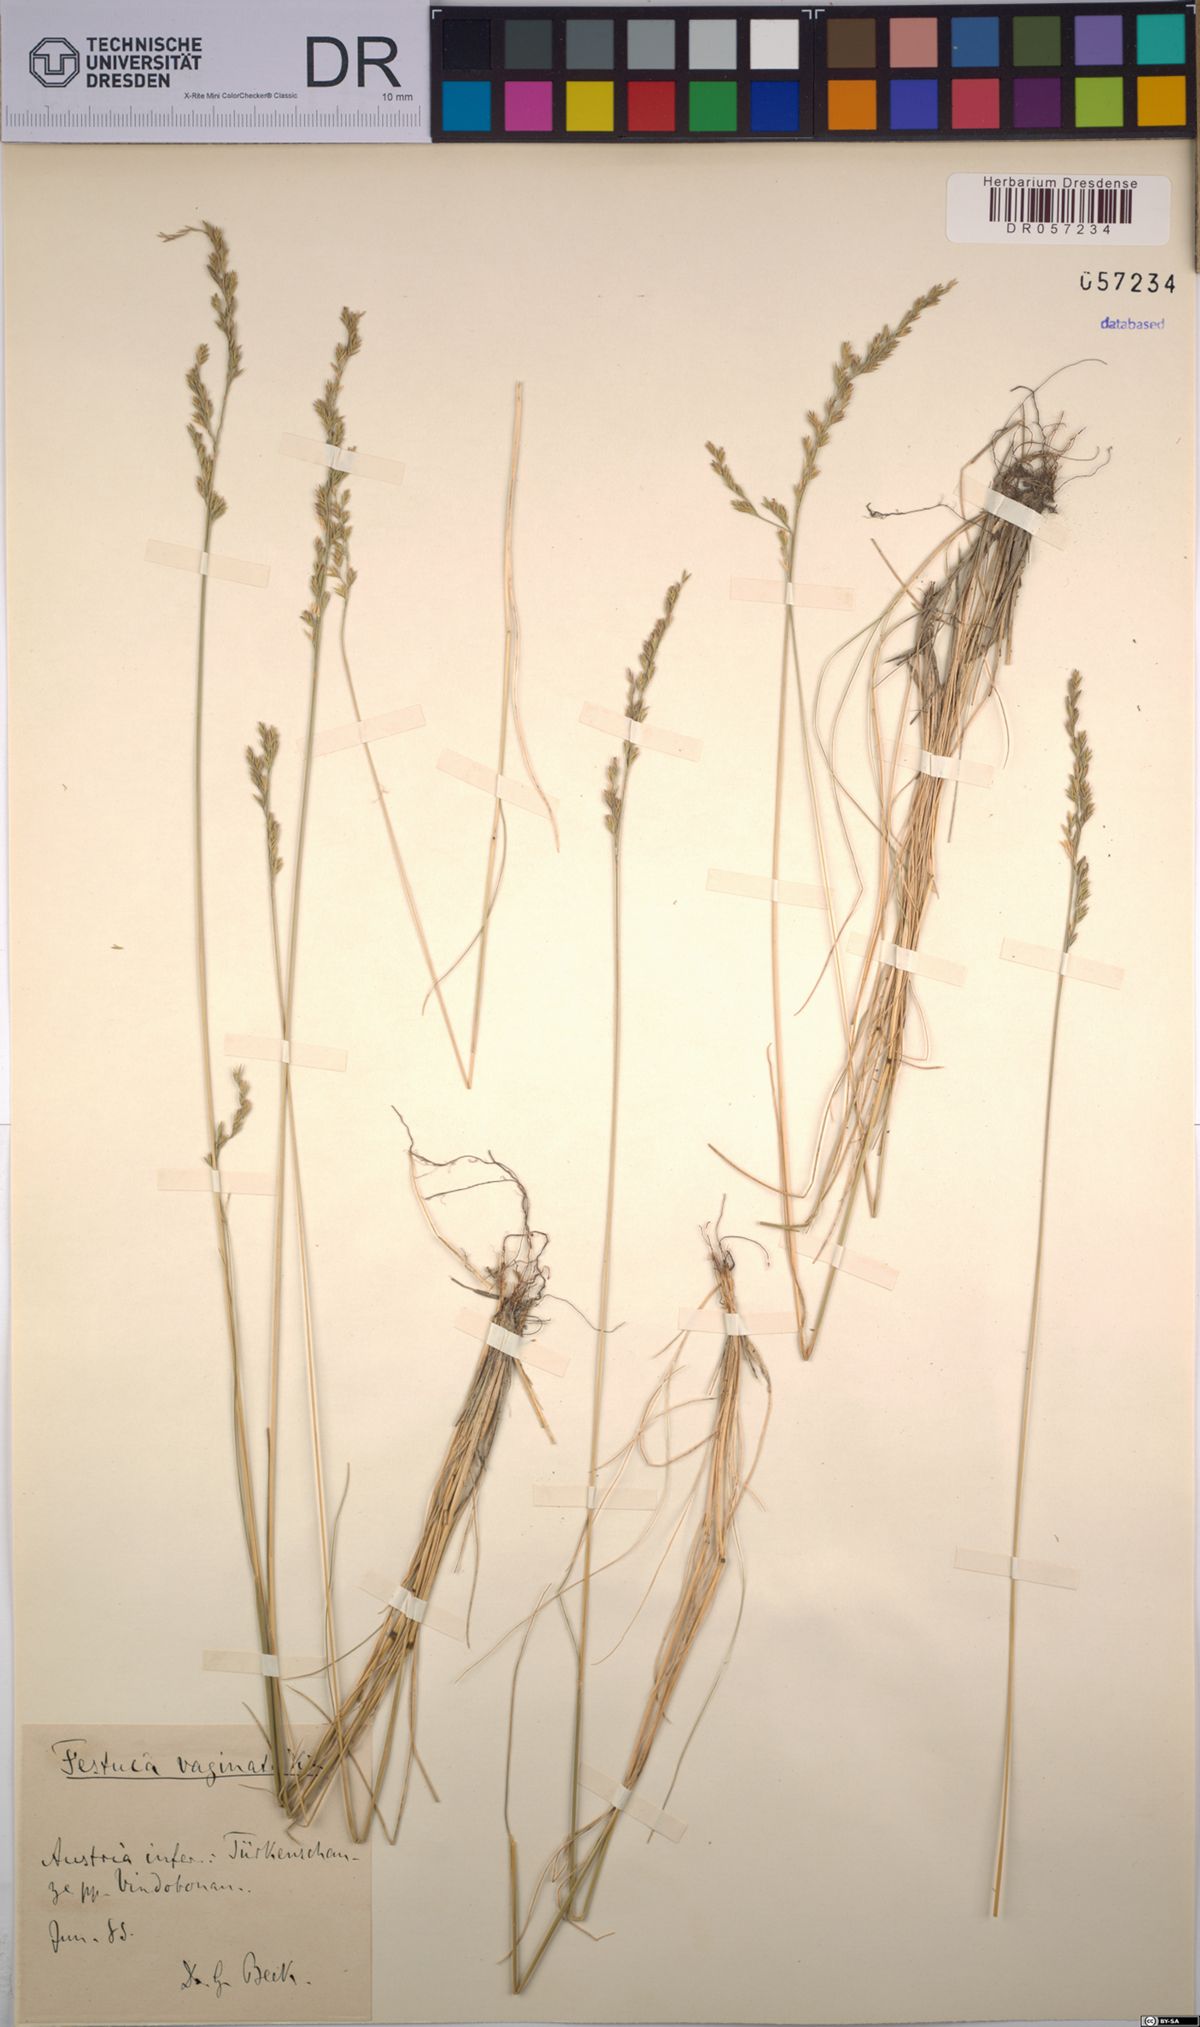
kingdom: Plantae
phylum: Tracheophyta
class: Liliopsida
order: Poales
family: Poaceae
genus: Festuca
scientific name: Festuca vaginata
